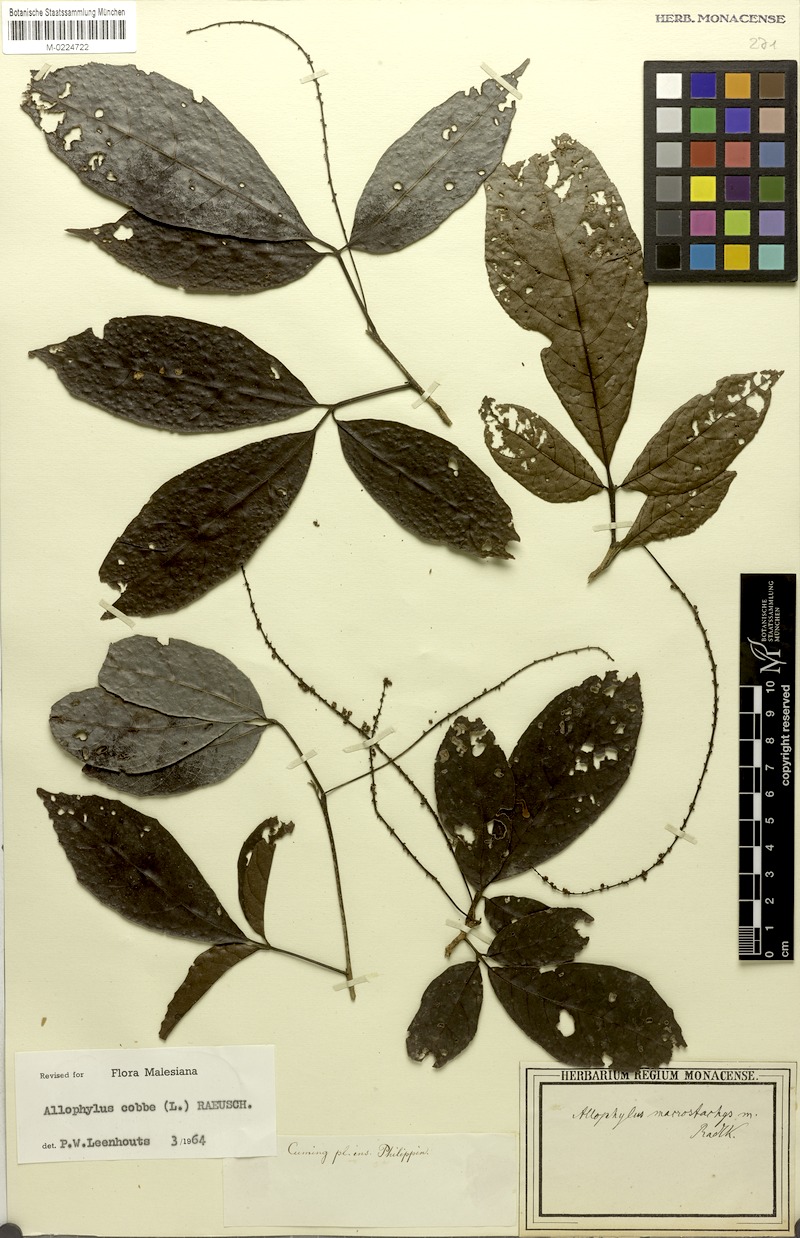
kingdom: Plantae
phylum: Tracheophyta
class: Magnoliopsida
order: Sapindales
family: Sapindaceae
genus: Allophylus
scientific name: Allophylus macrostachys
